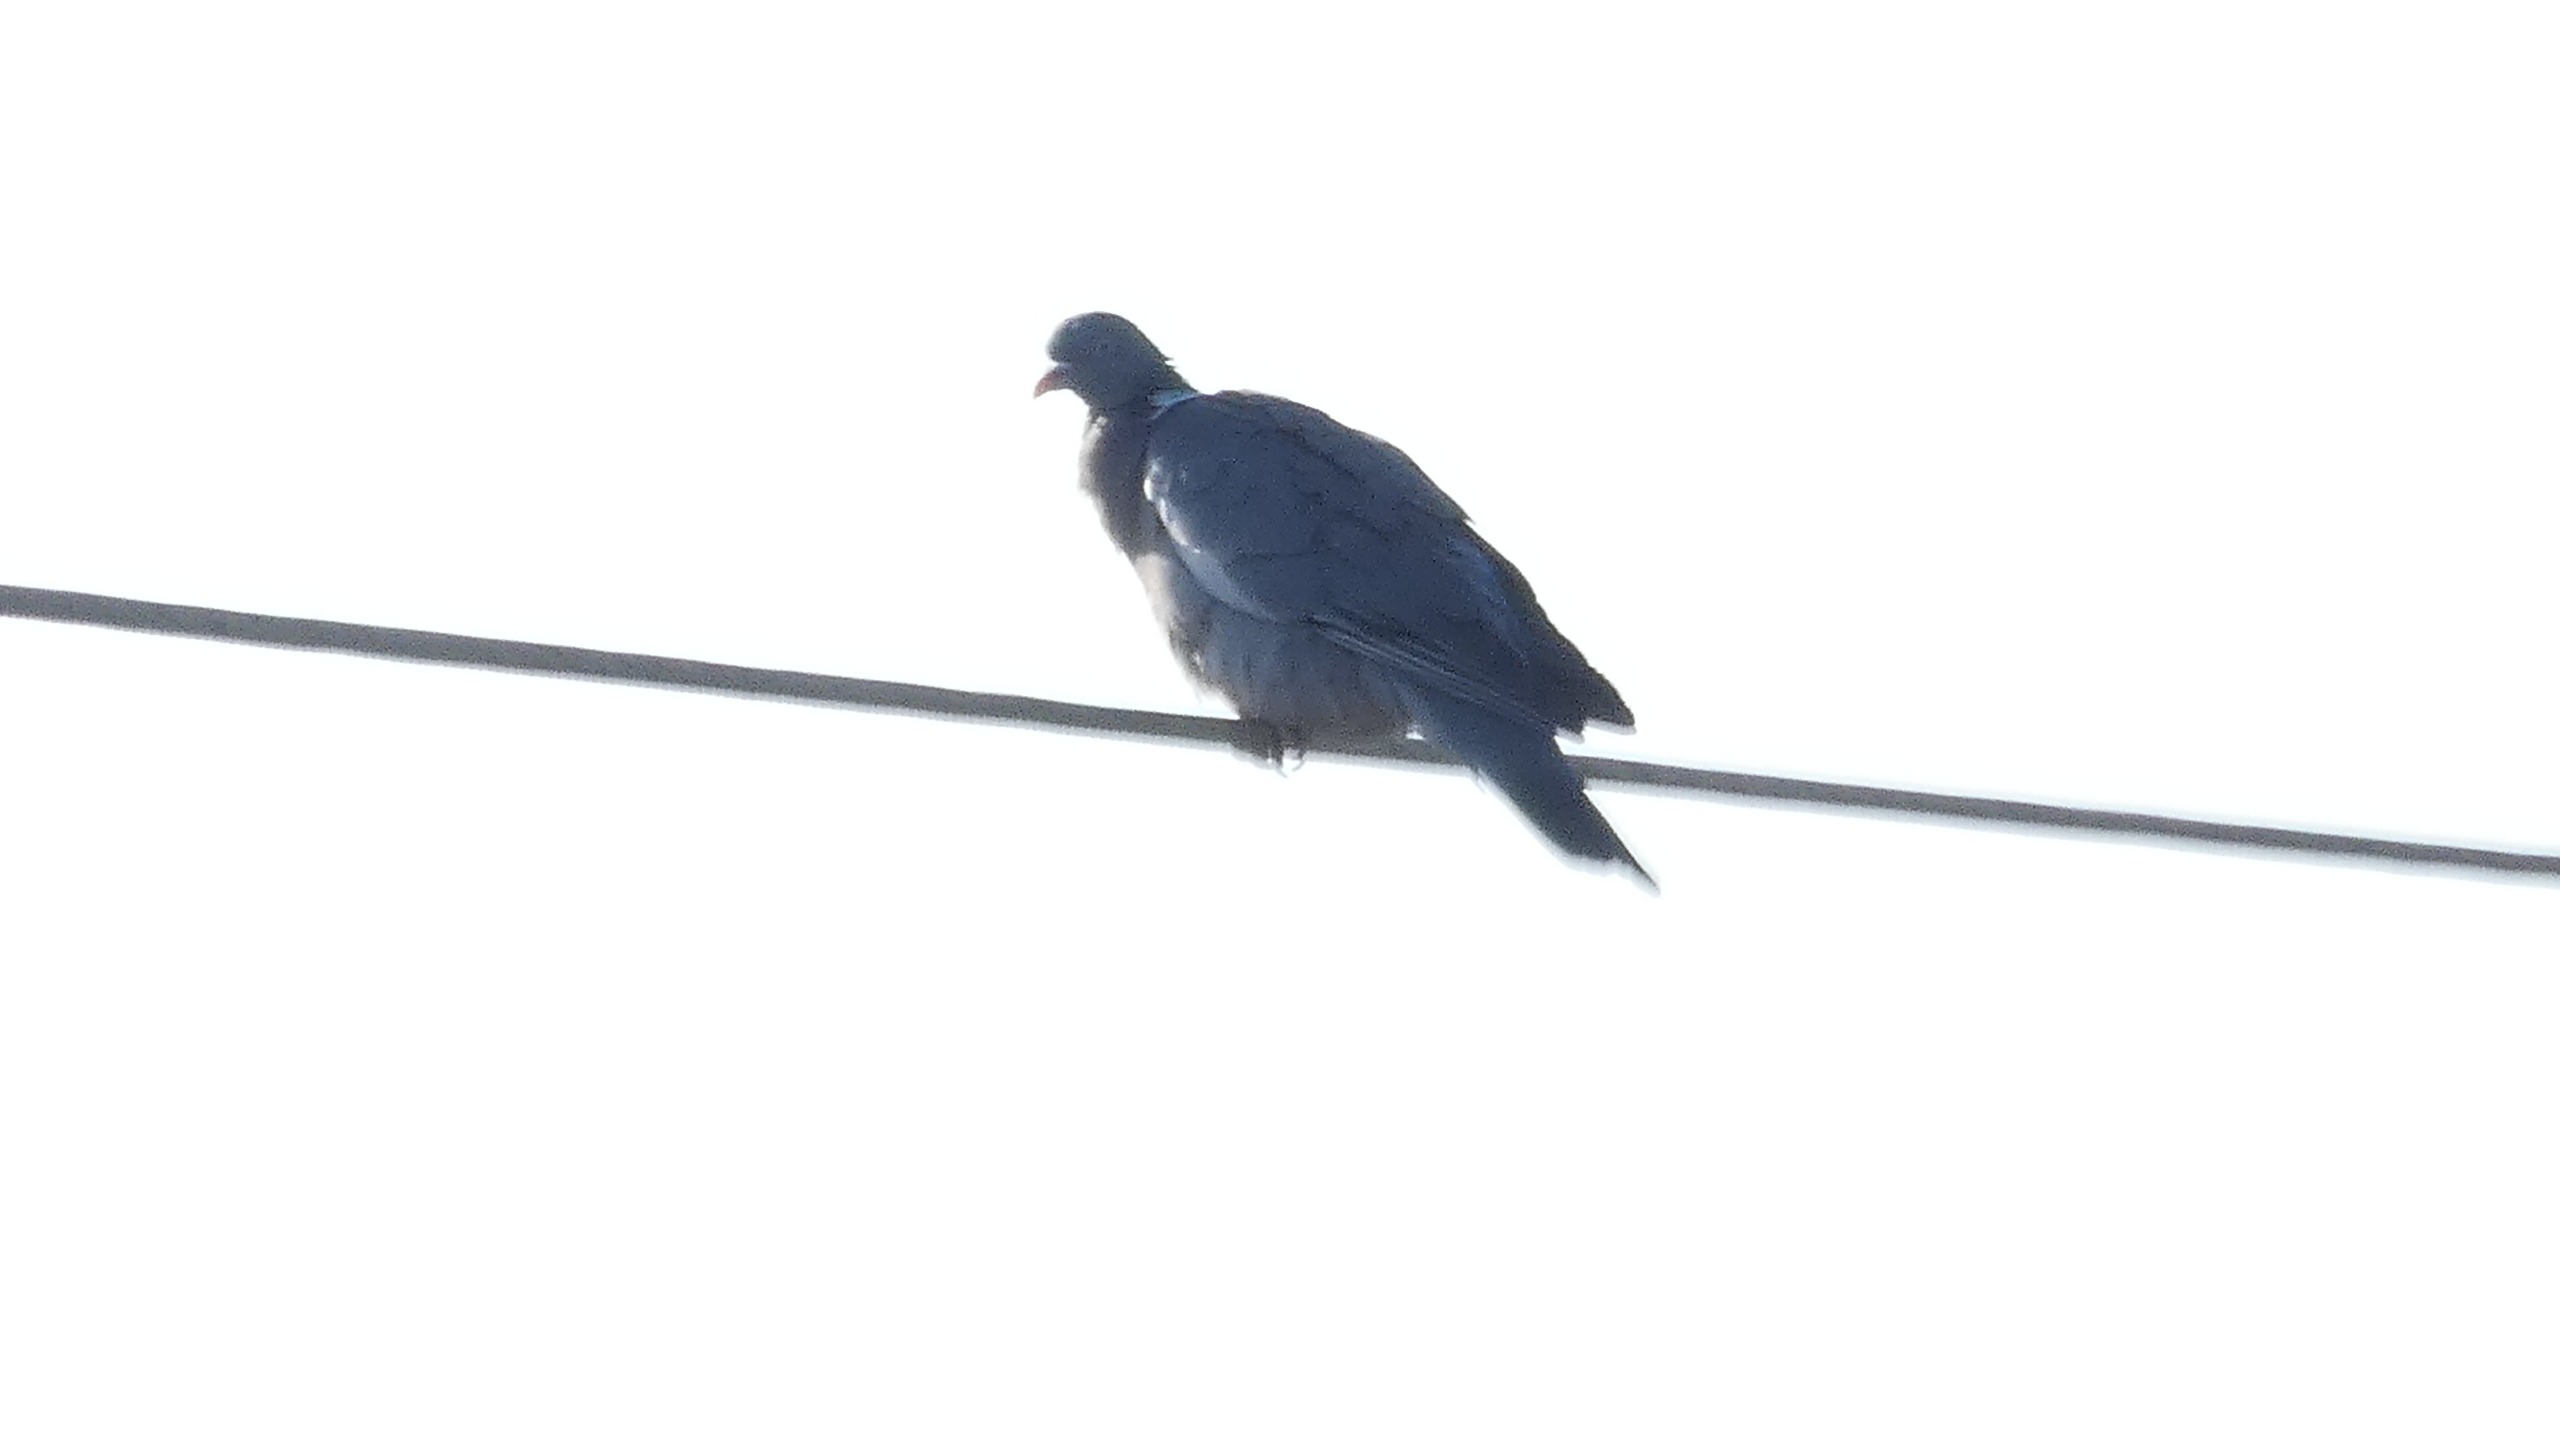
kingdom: Animalia
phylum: Chordata
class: Aves
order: Columbiformes
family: Columbidae
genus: Columba
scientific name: Columba palumbus
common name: Ringdue
